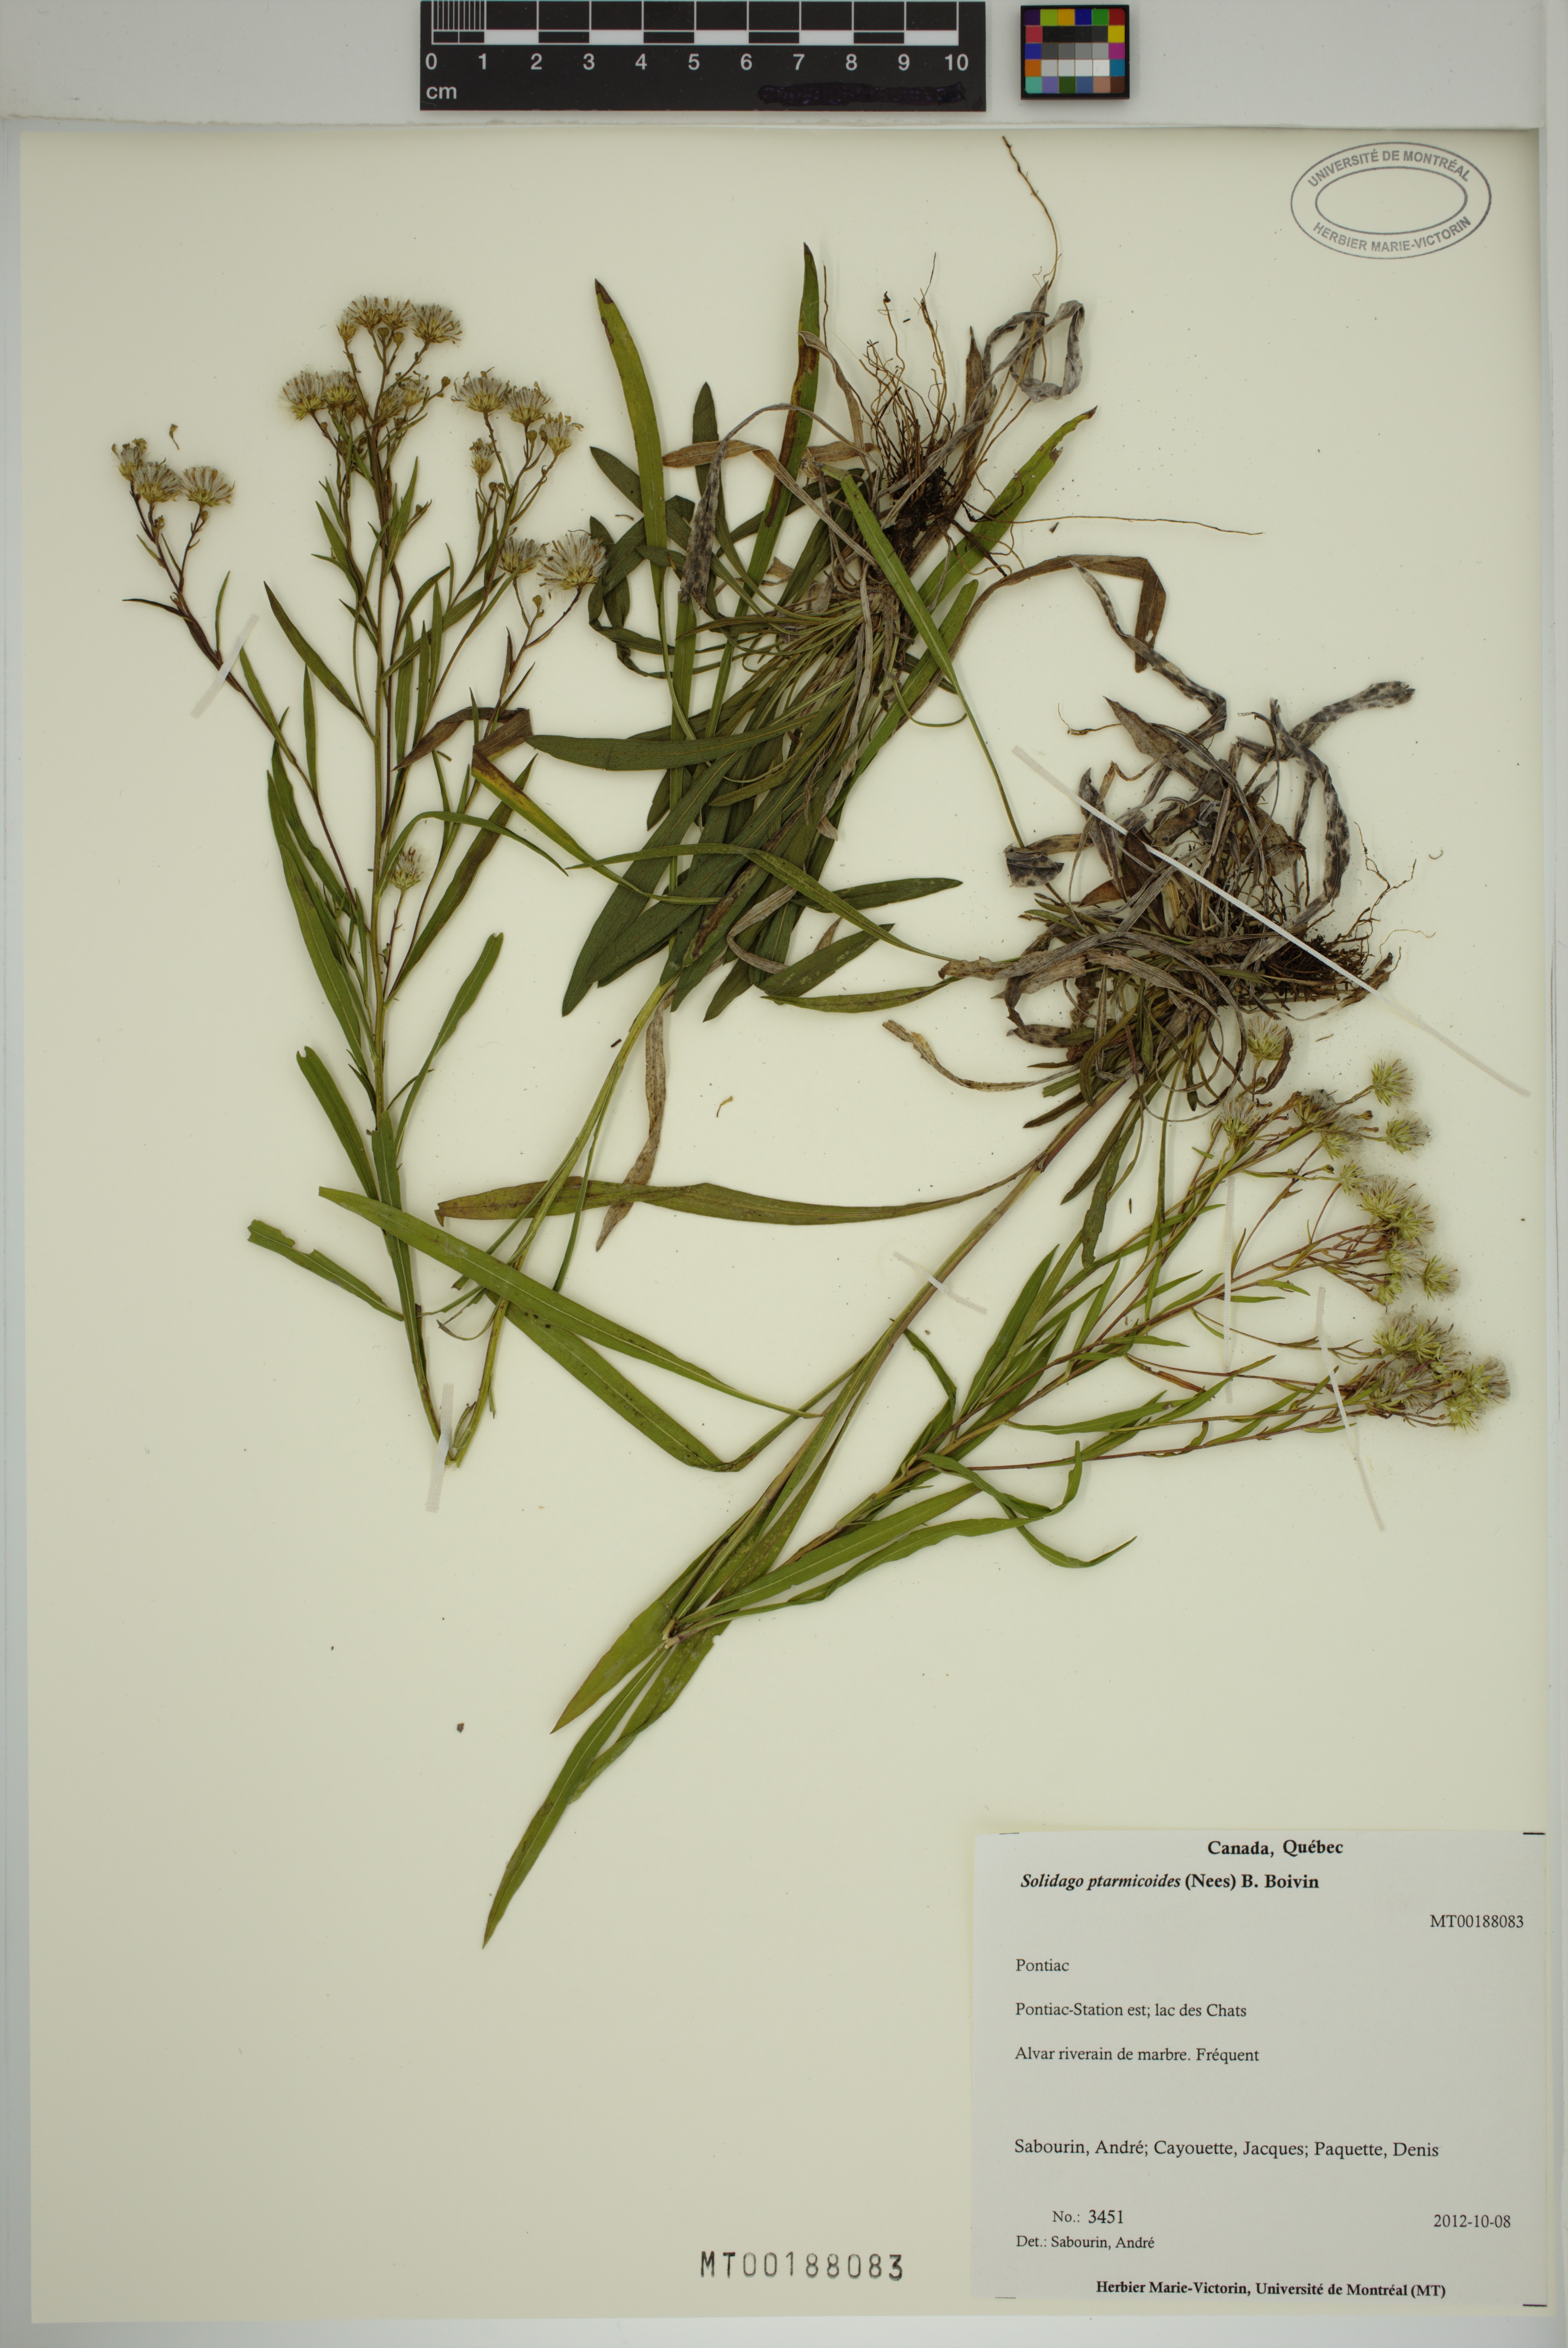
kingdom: Plantae
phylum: Tracheophyta
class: Magnoliopsida
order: Asterales
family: Asteraceae
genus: Solidago
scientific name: Solidago ptarmicoides
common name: White flat-top goldenrod
